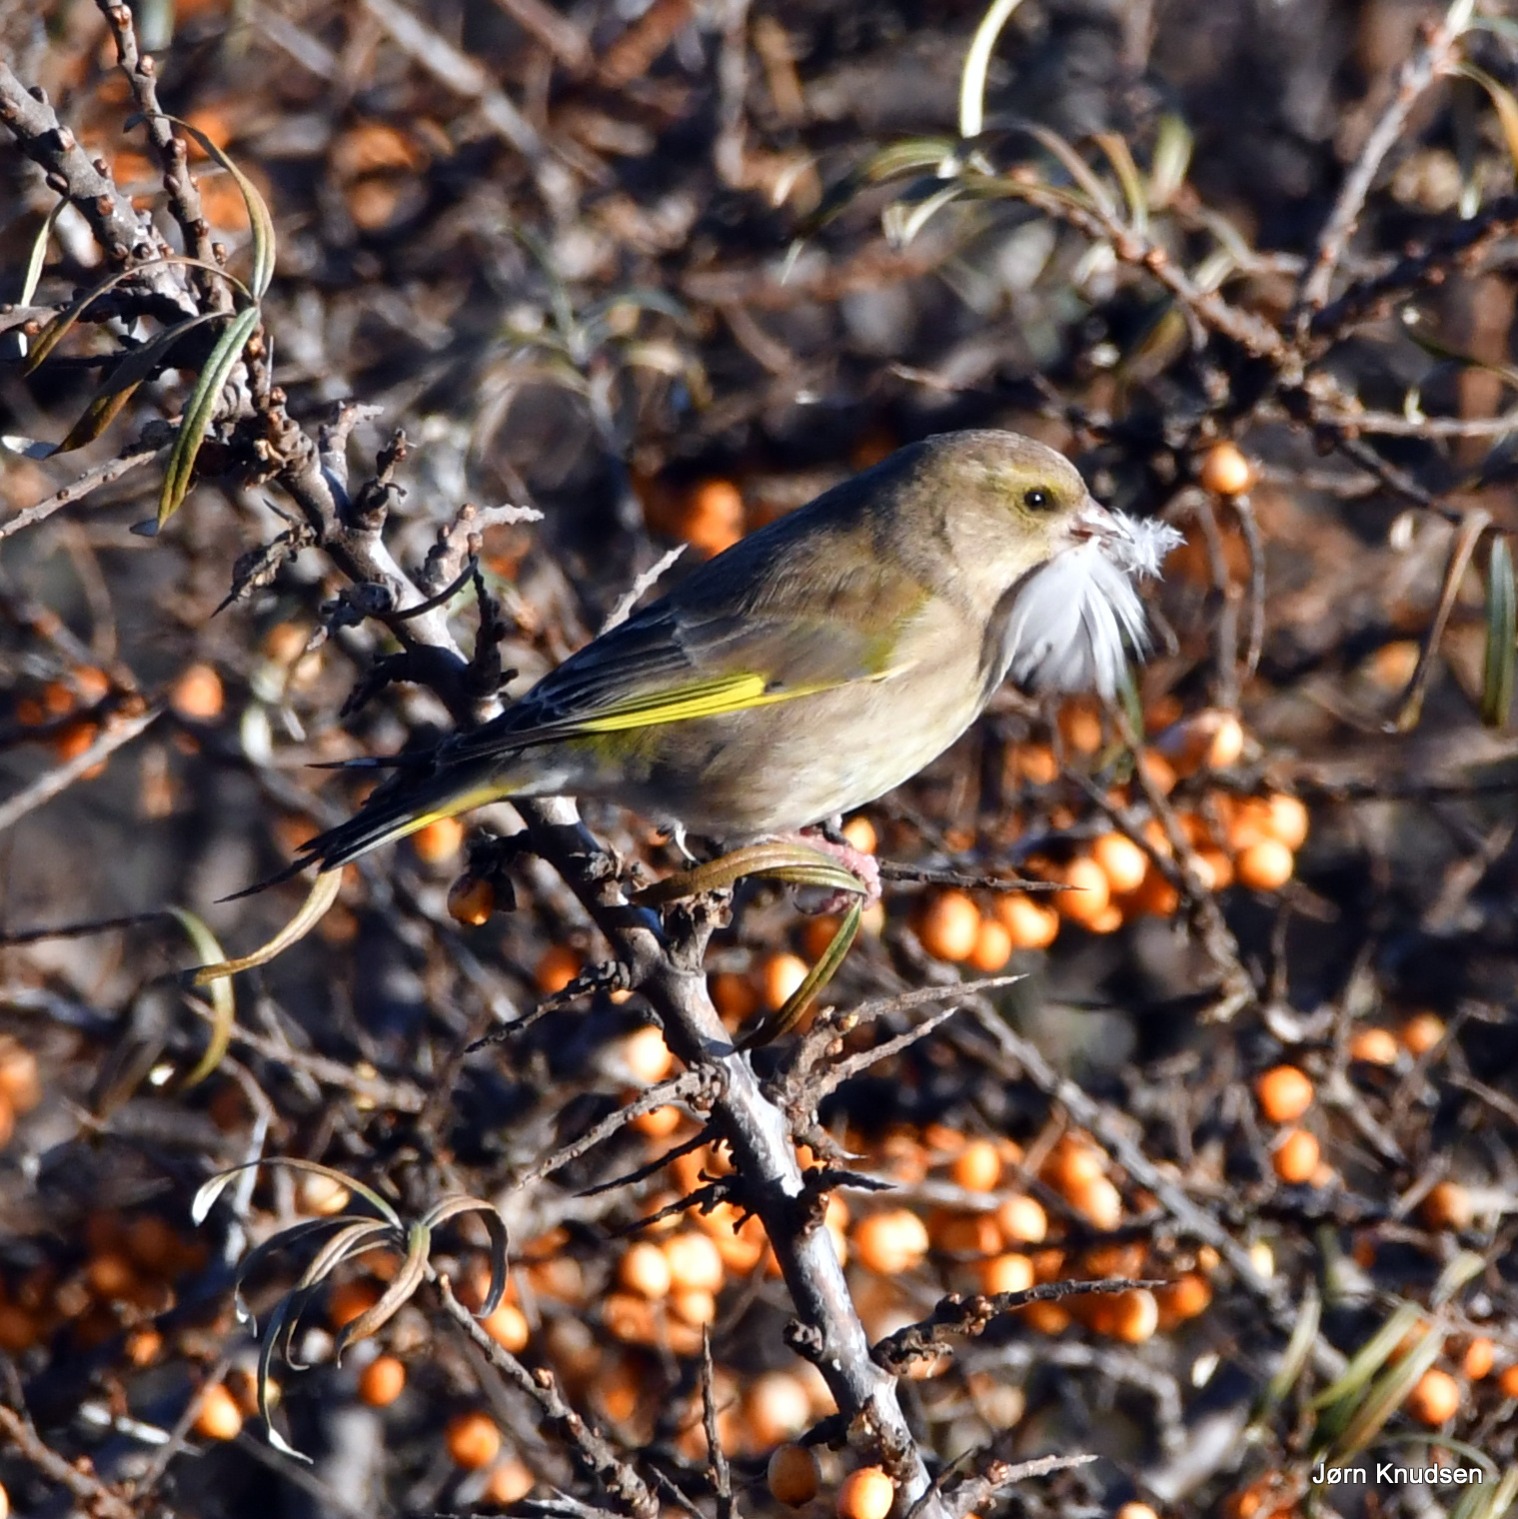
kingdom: Plantae
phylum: Tracheophyta
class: Liliopsida
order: Poales
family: Poaceae
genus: Chloris
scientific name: Chloris chloris
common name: Grønirisk
